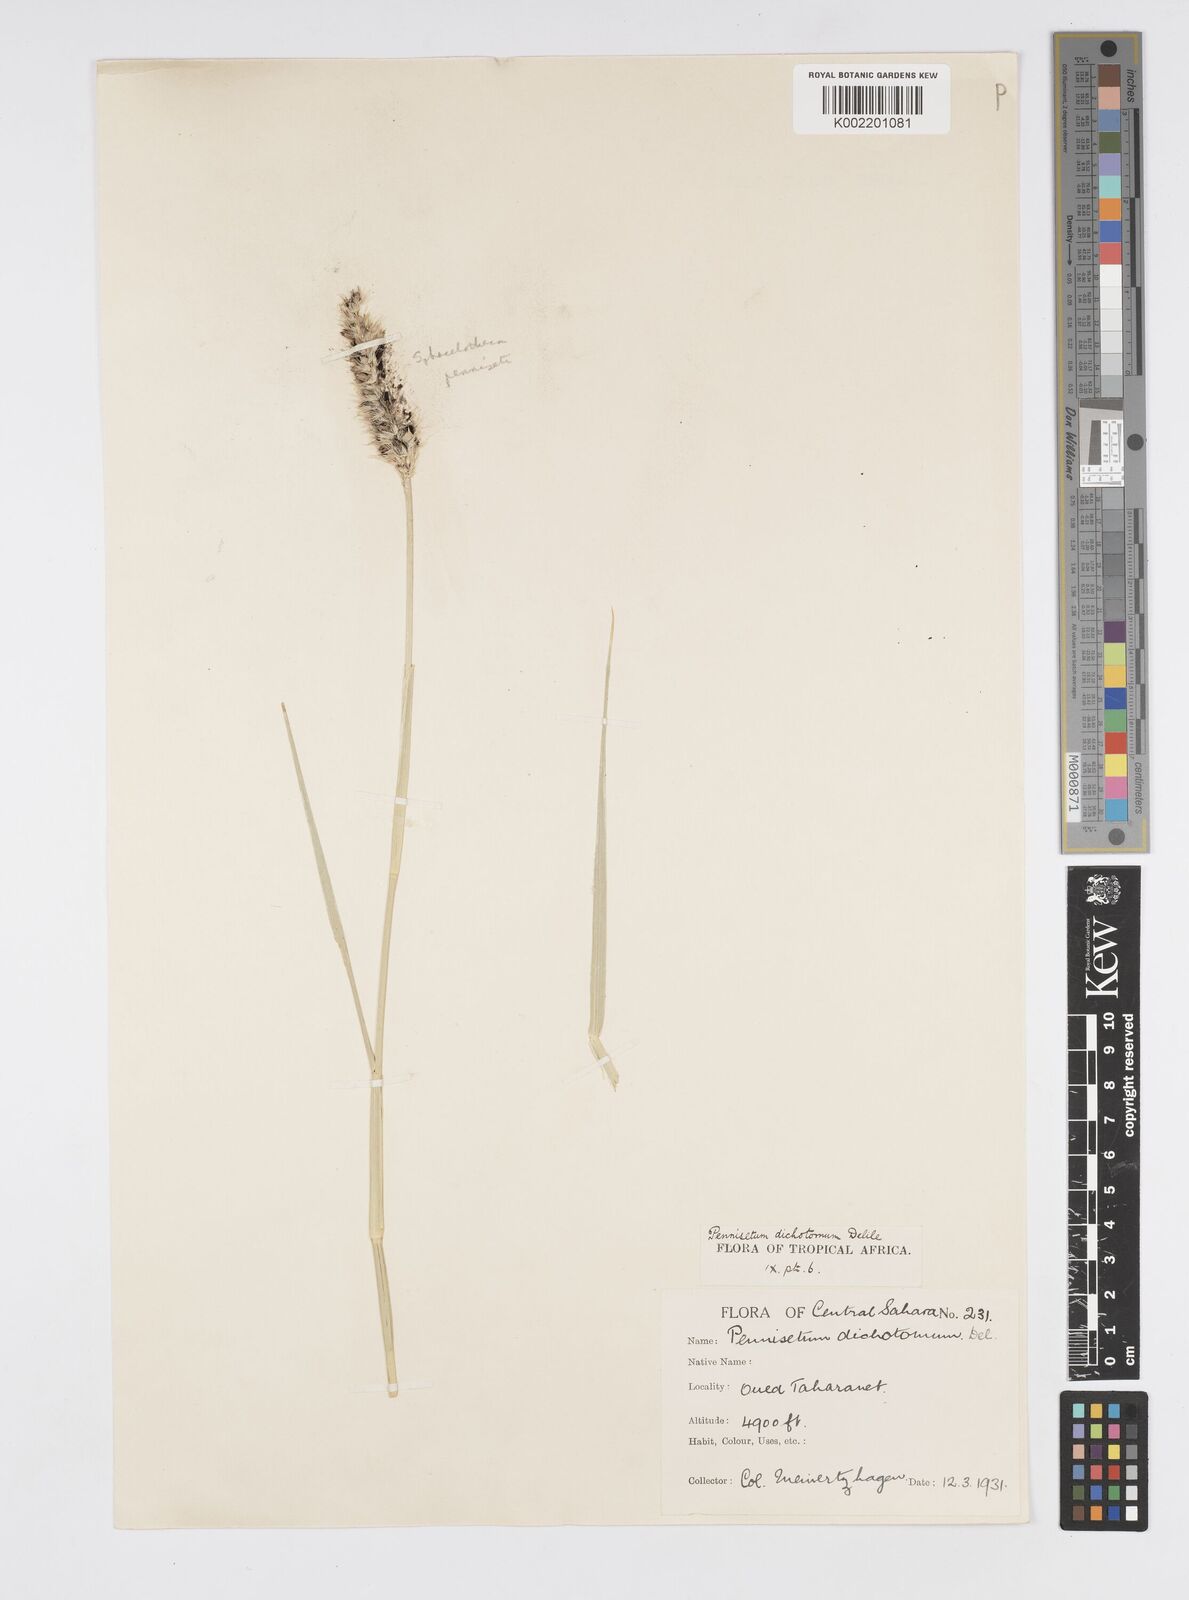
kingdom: Plantae
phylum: Tracheophyta
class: Liliopsida
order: Poales
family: Poaceae
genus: Cenchrus
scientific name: Cenchrus divisus
